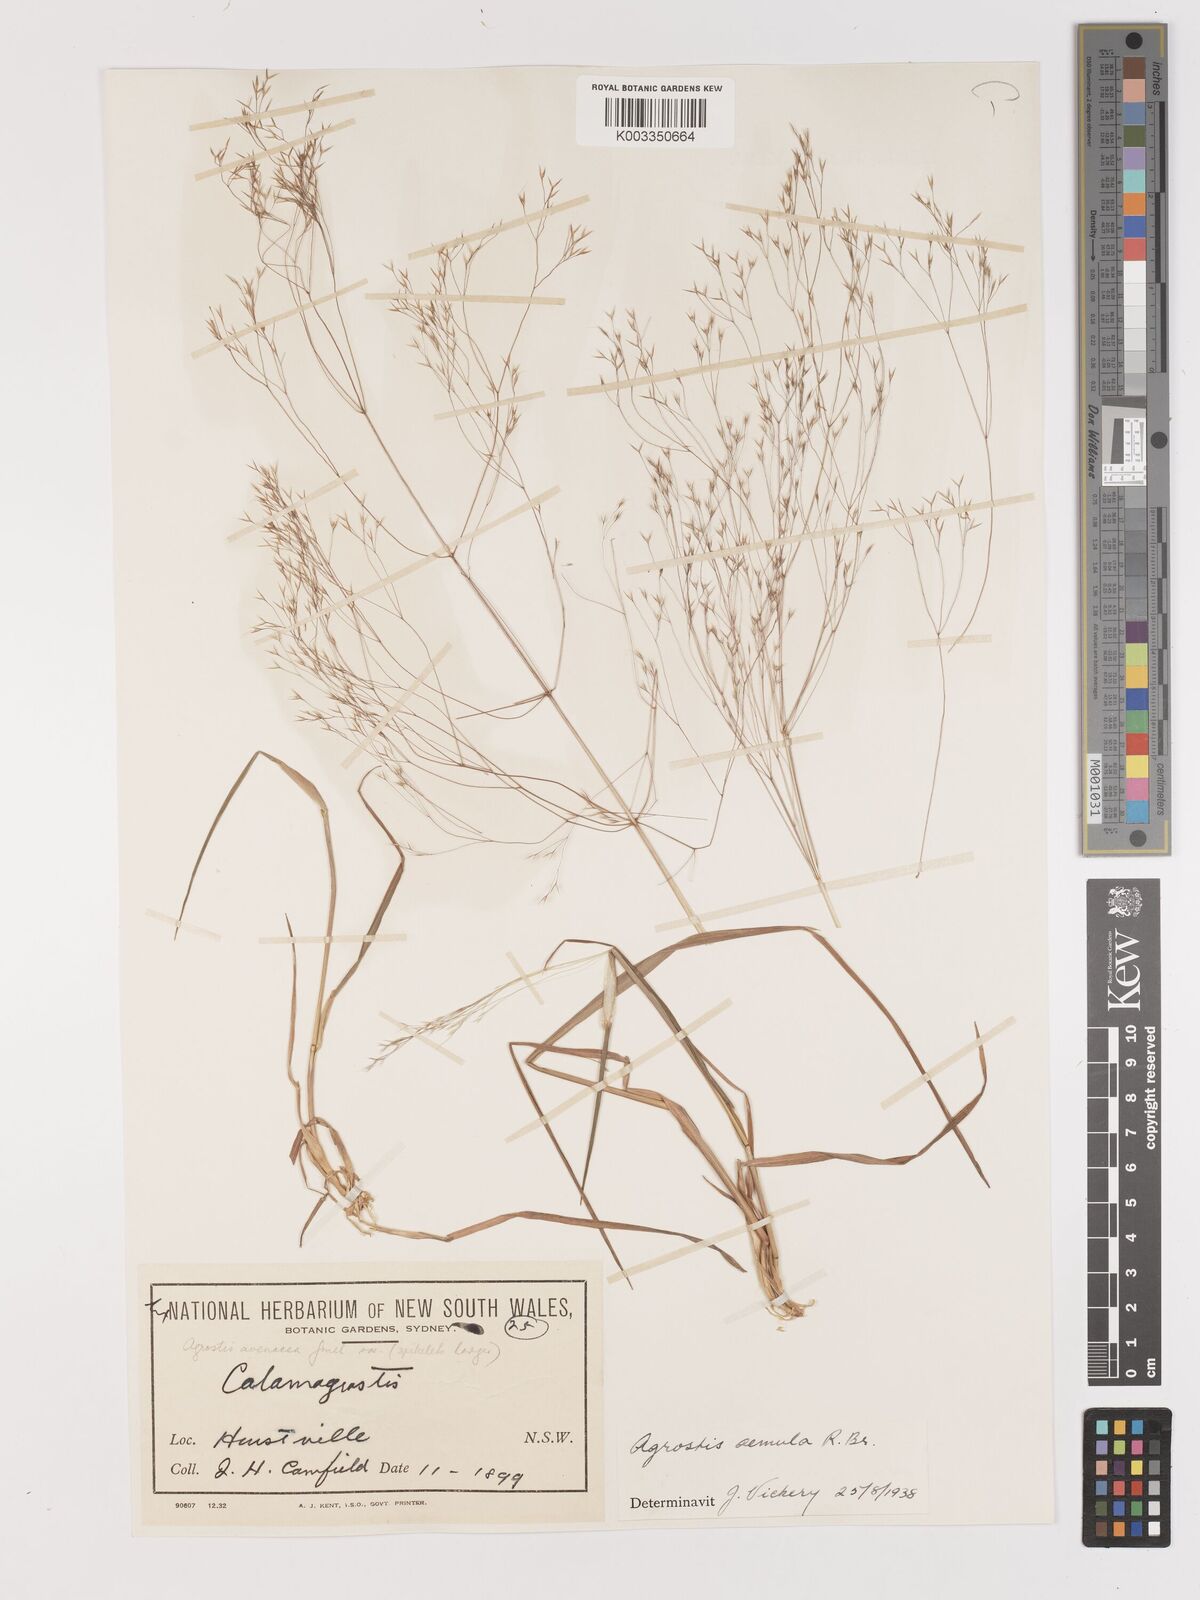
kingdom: Plantae
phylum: Tracheophyta
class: Liliopsida
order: Poales
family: Poaceae
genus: Lachnagrostis
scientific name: Lachnagrostis aemula
